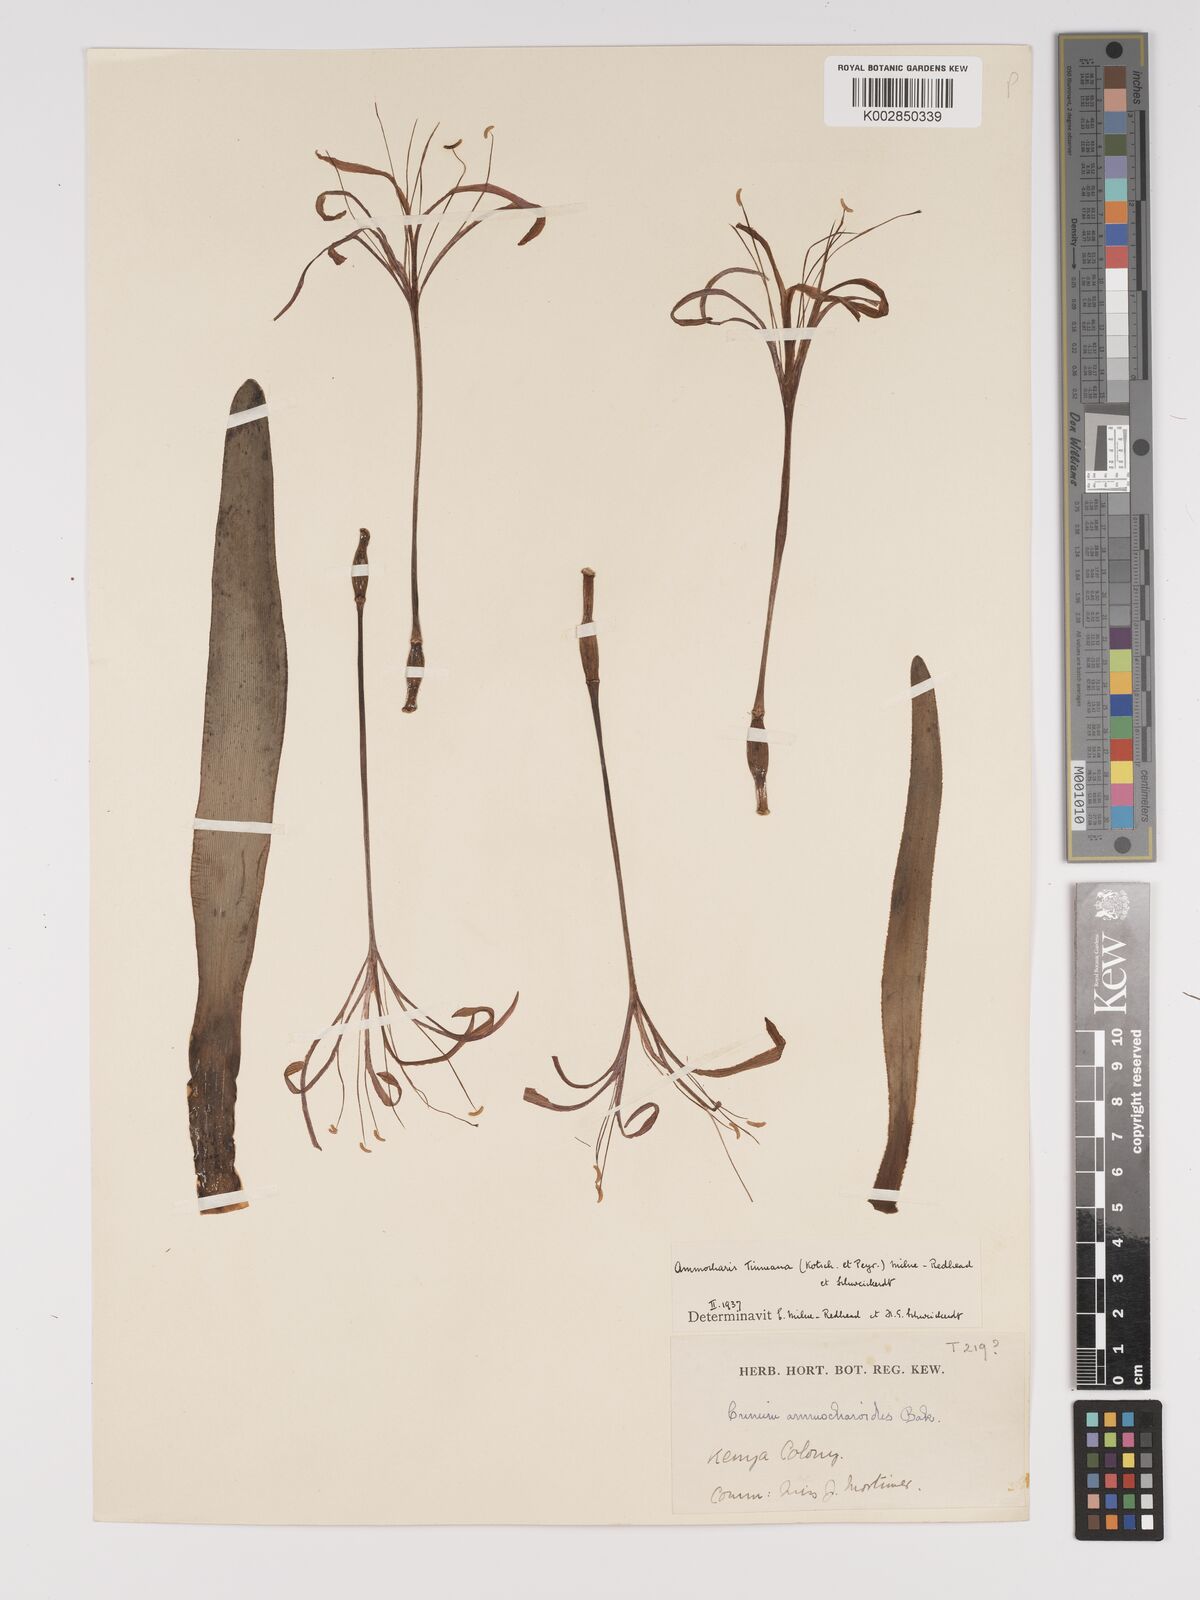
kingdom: Plantae
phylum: Tracheophyta
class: Liliopsida
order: Asparagales
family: Amaryllidaceae
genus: Ammocharis
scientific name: Ammocharis tinneana
